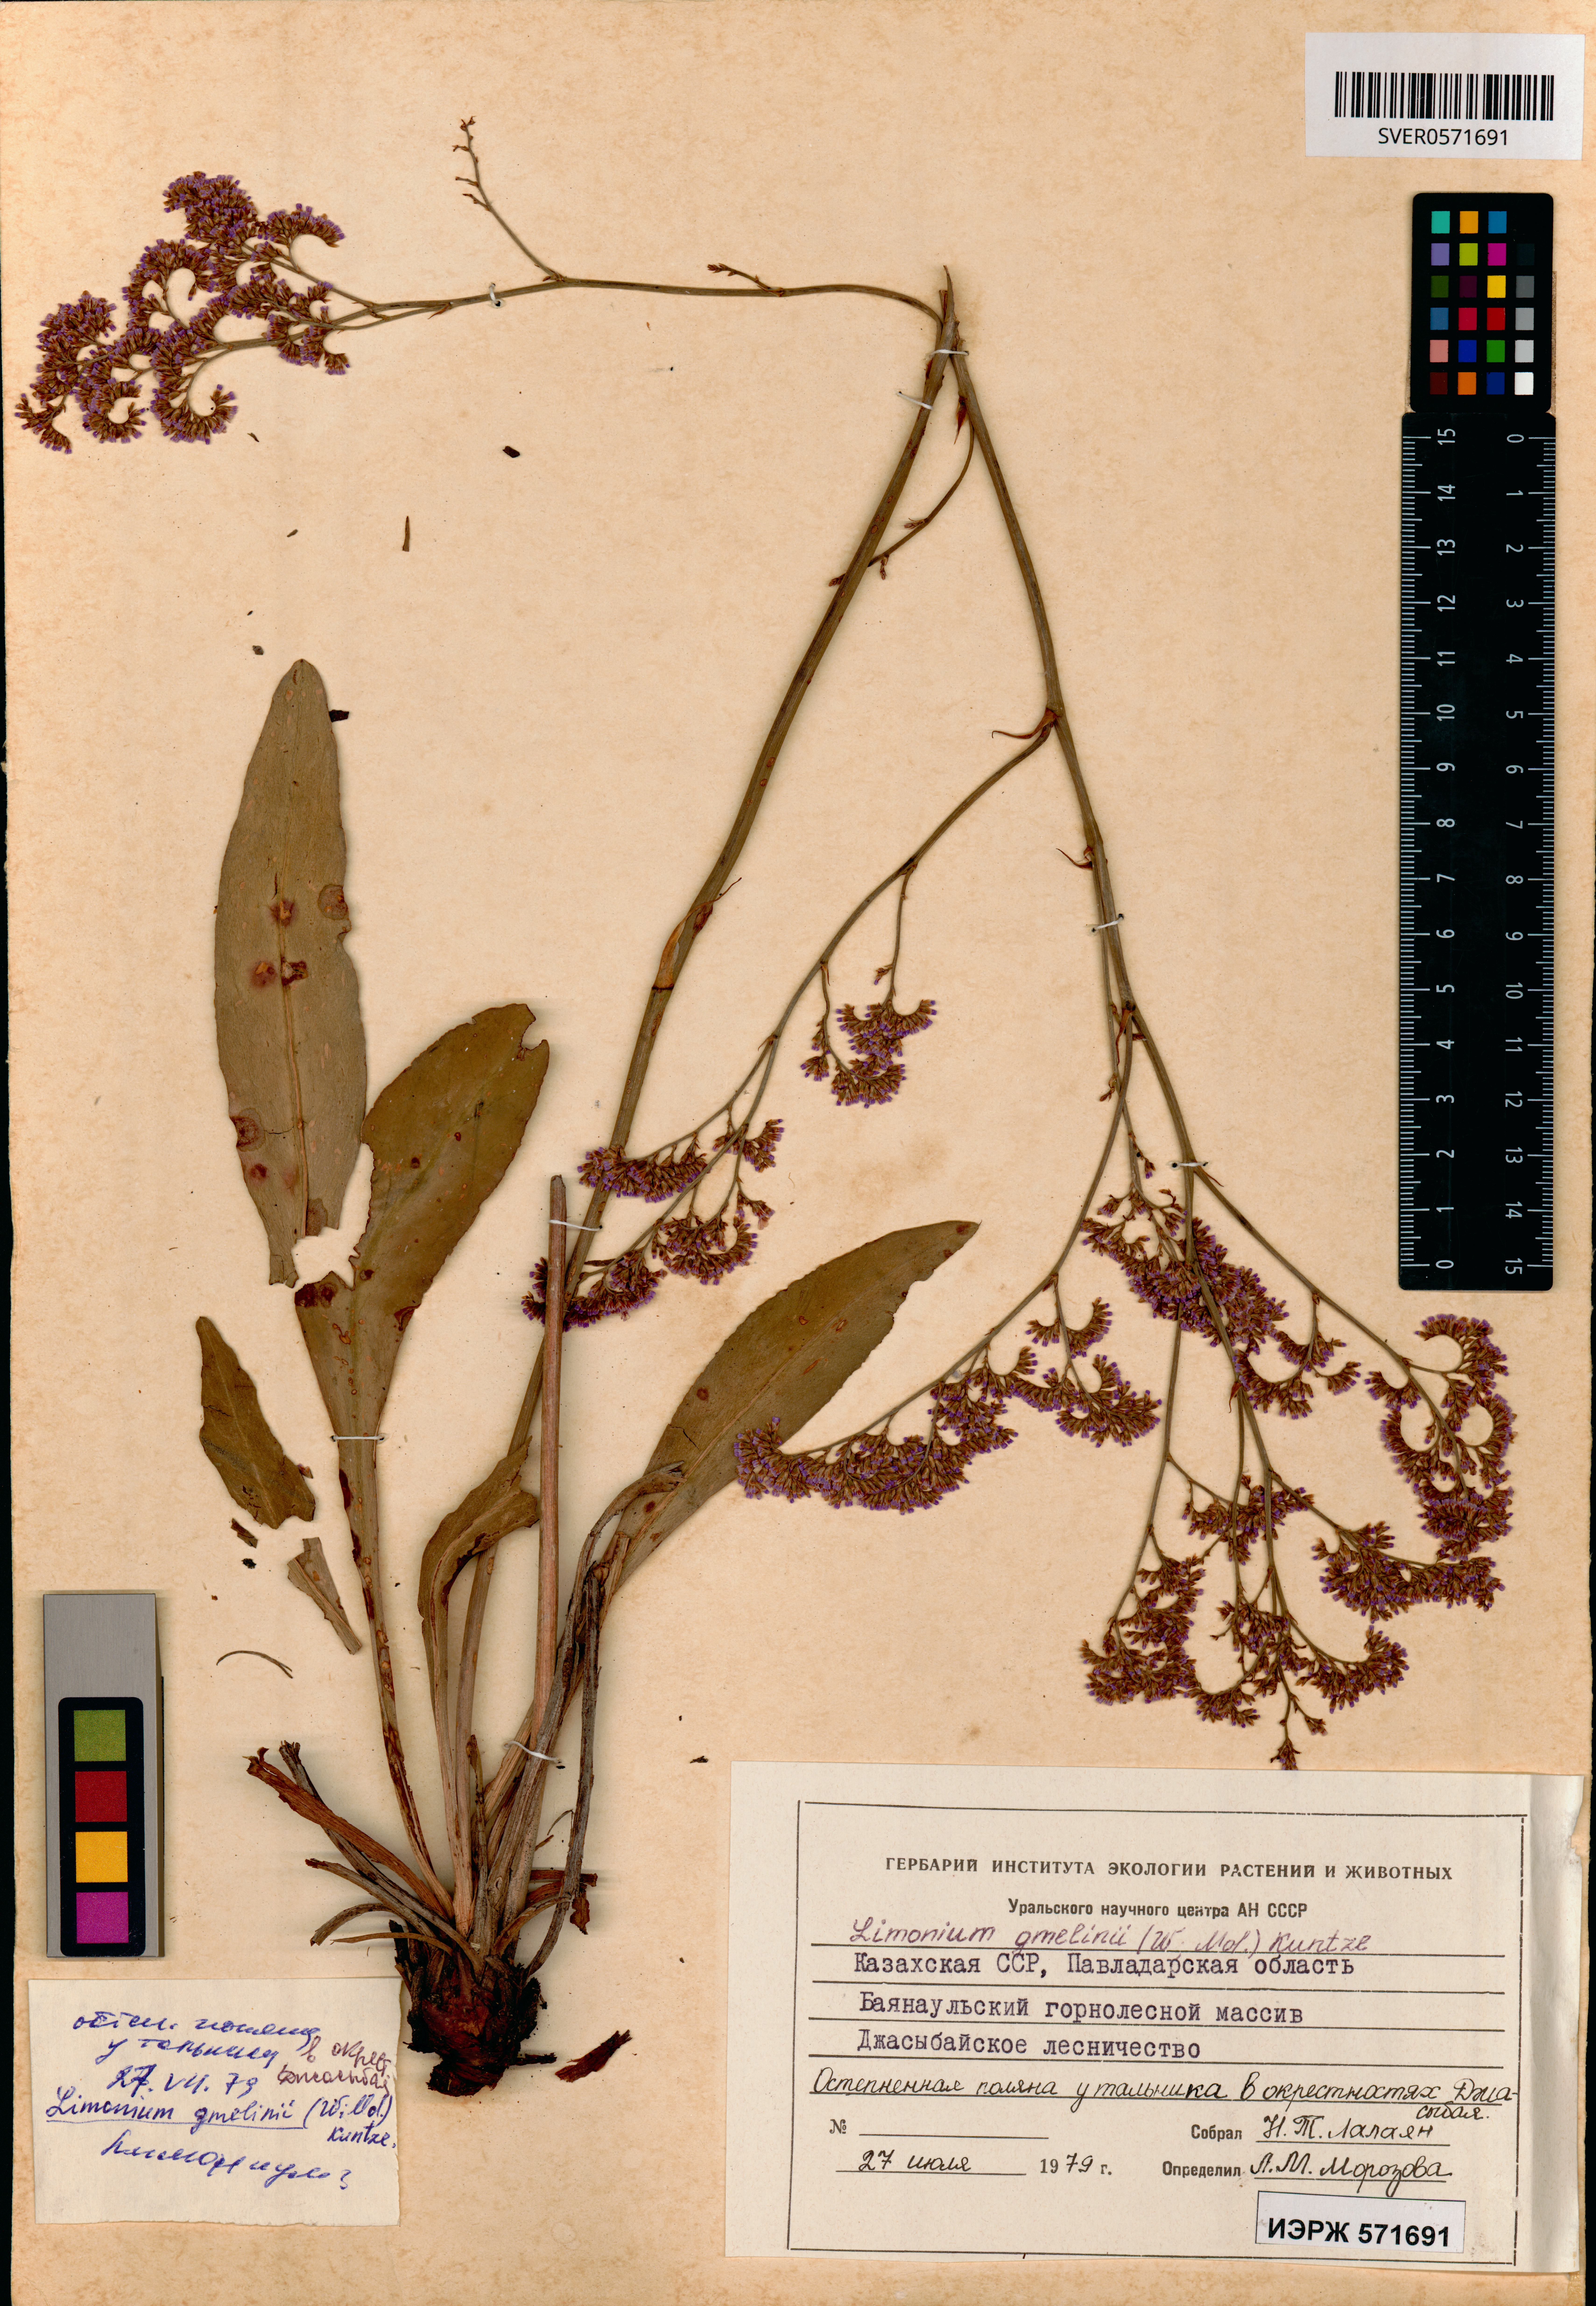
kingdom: Plantae
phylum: Tracheophyta
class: Magnoliopsida
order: Caryophyllales
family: Plumbaginaceae
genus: Limonium
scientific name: Limonium gmelini
